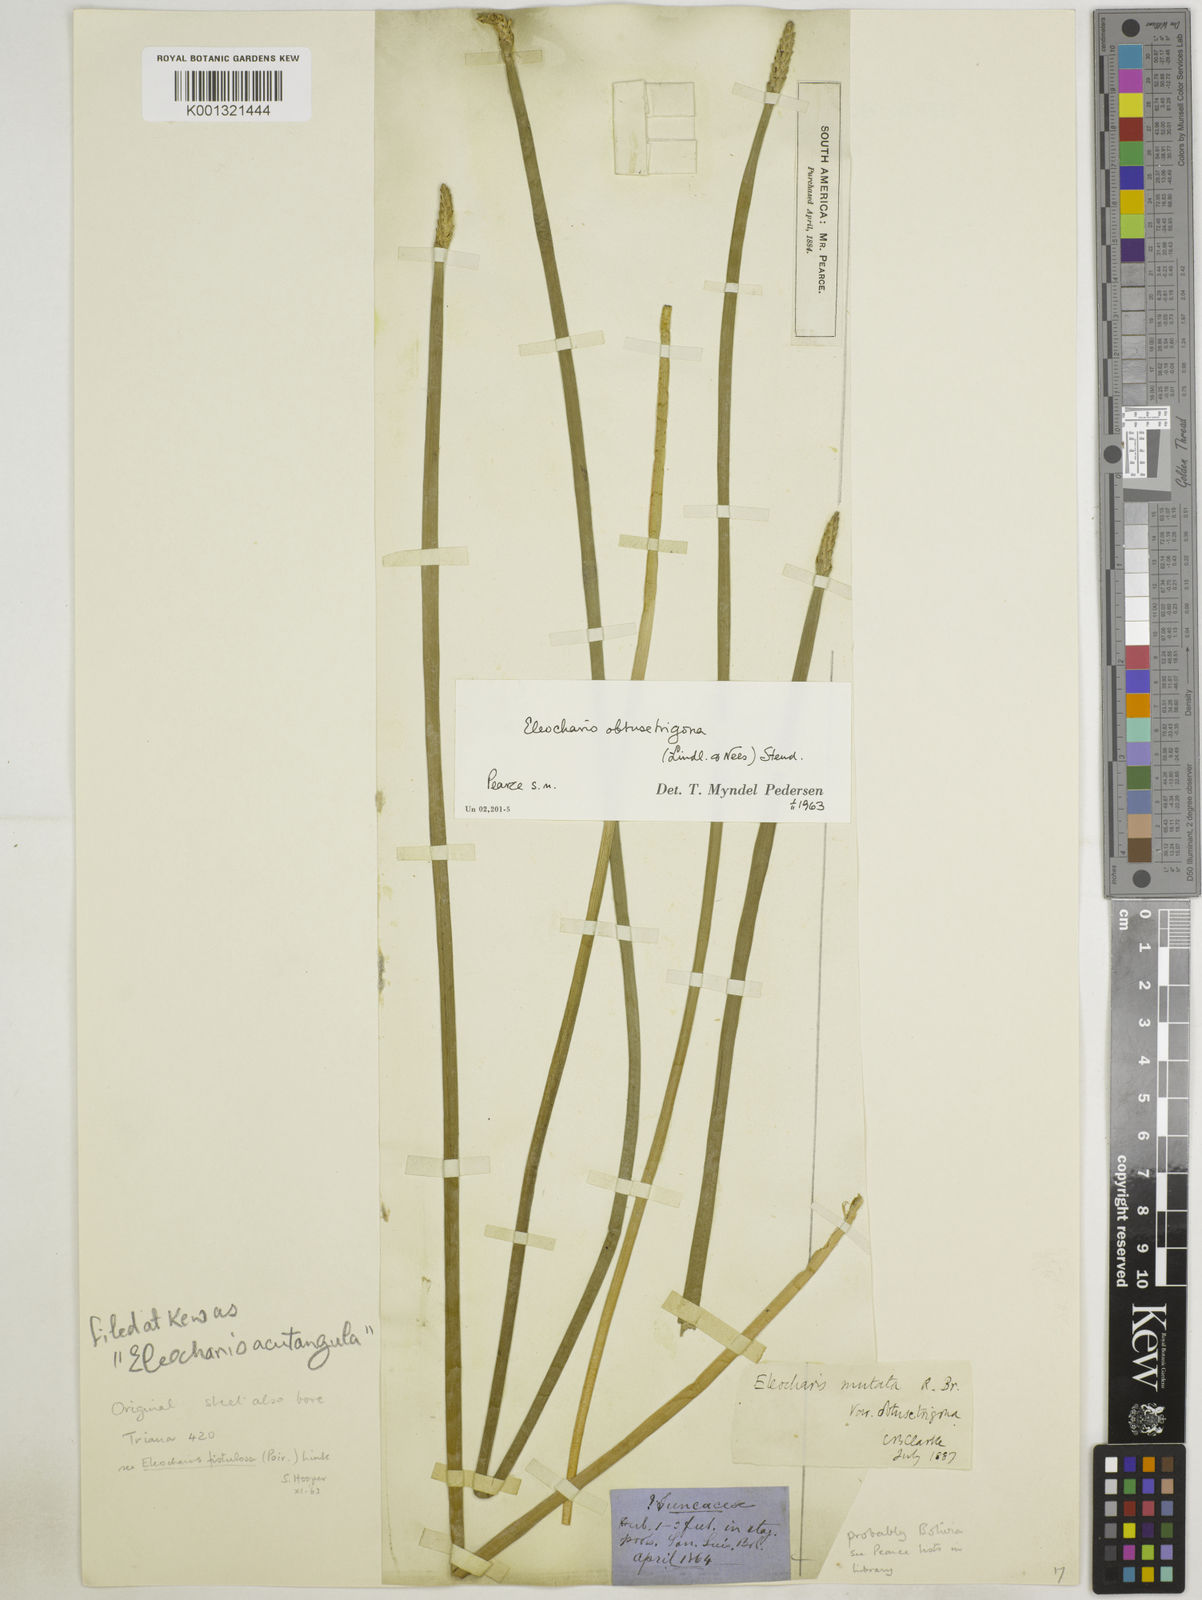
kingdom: Plantae
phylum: Tracheophyta
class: Liliopsida
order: Poales
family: Cyperaceae
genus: Eleocharis
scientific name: Eleocharis acutangula
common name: Acute spikerush
